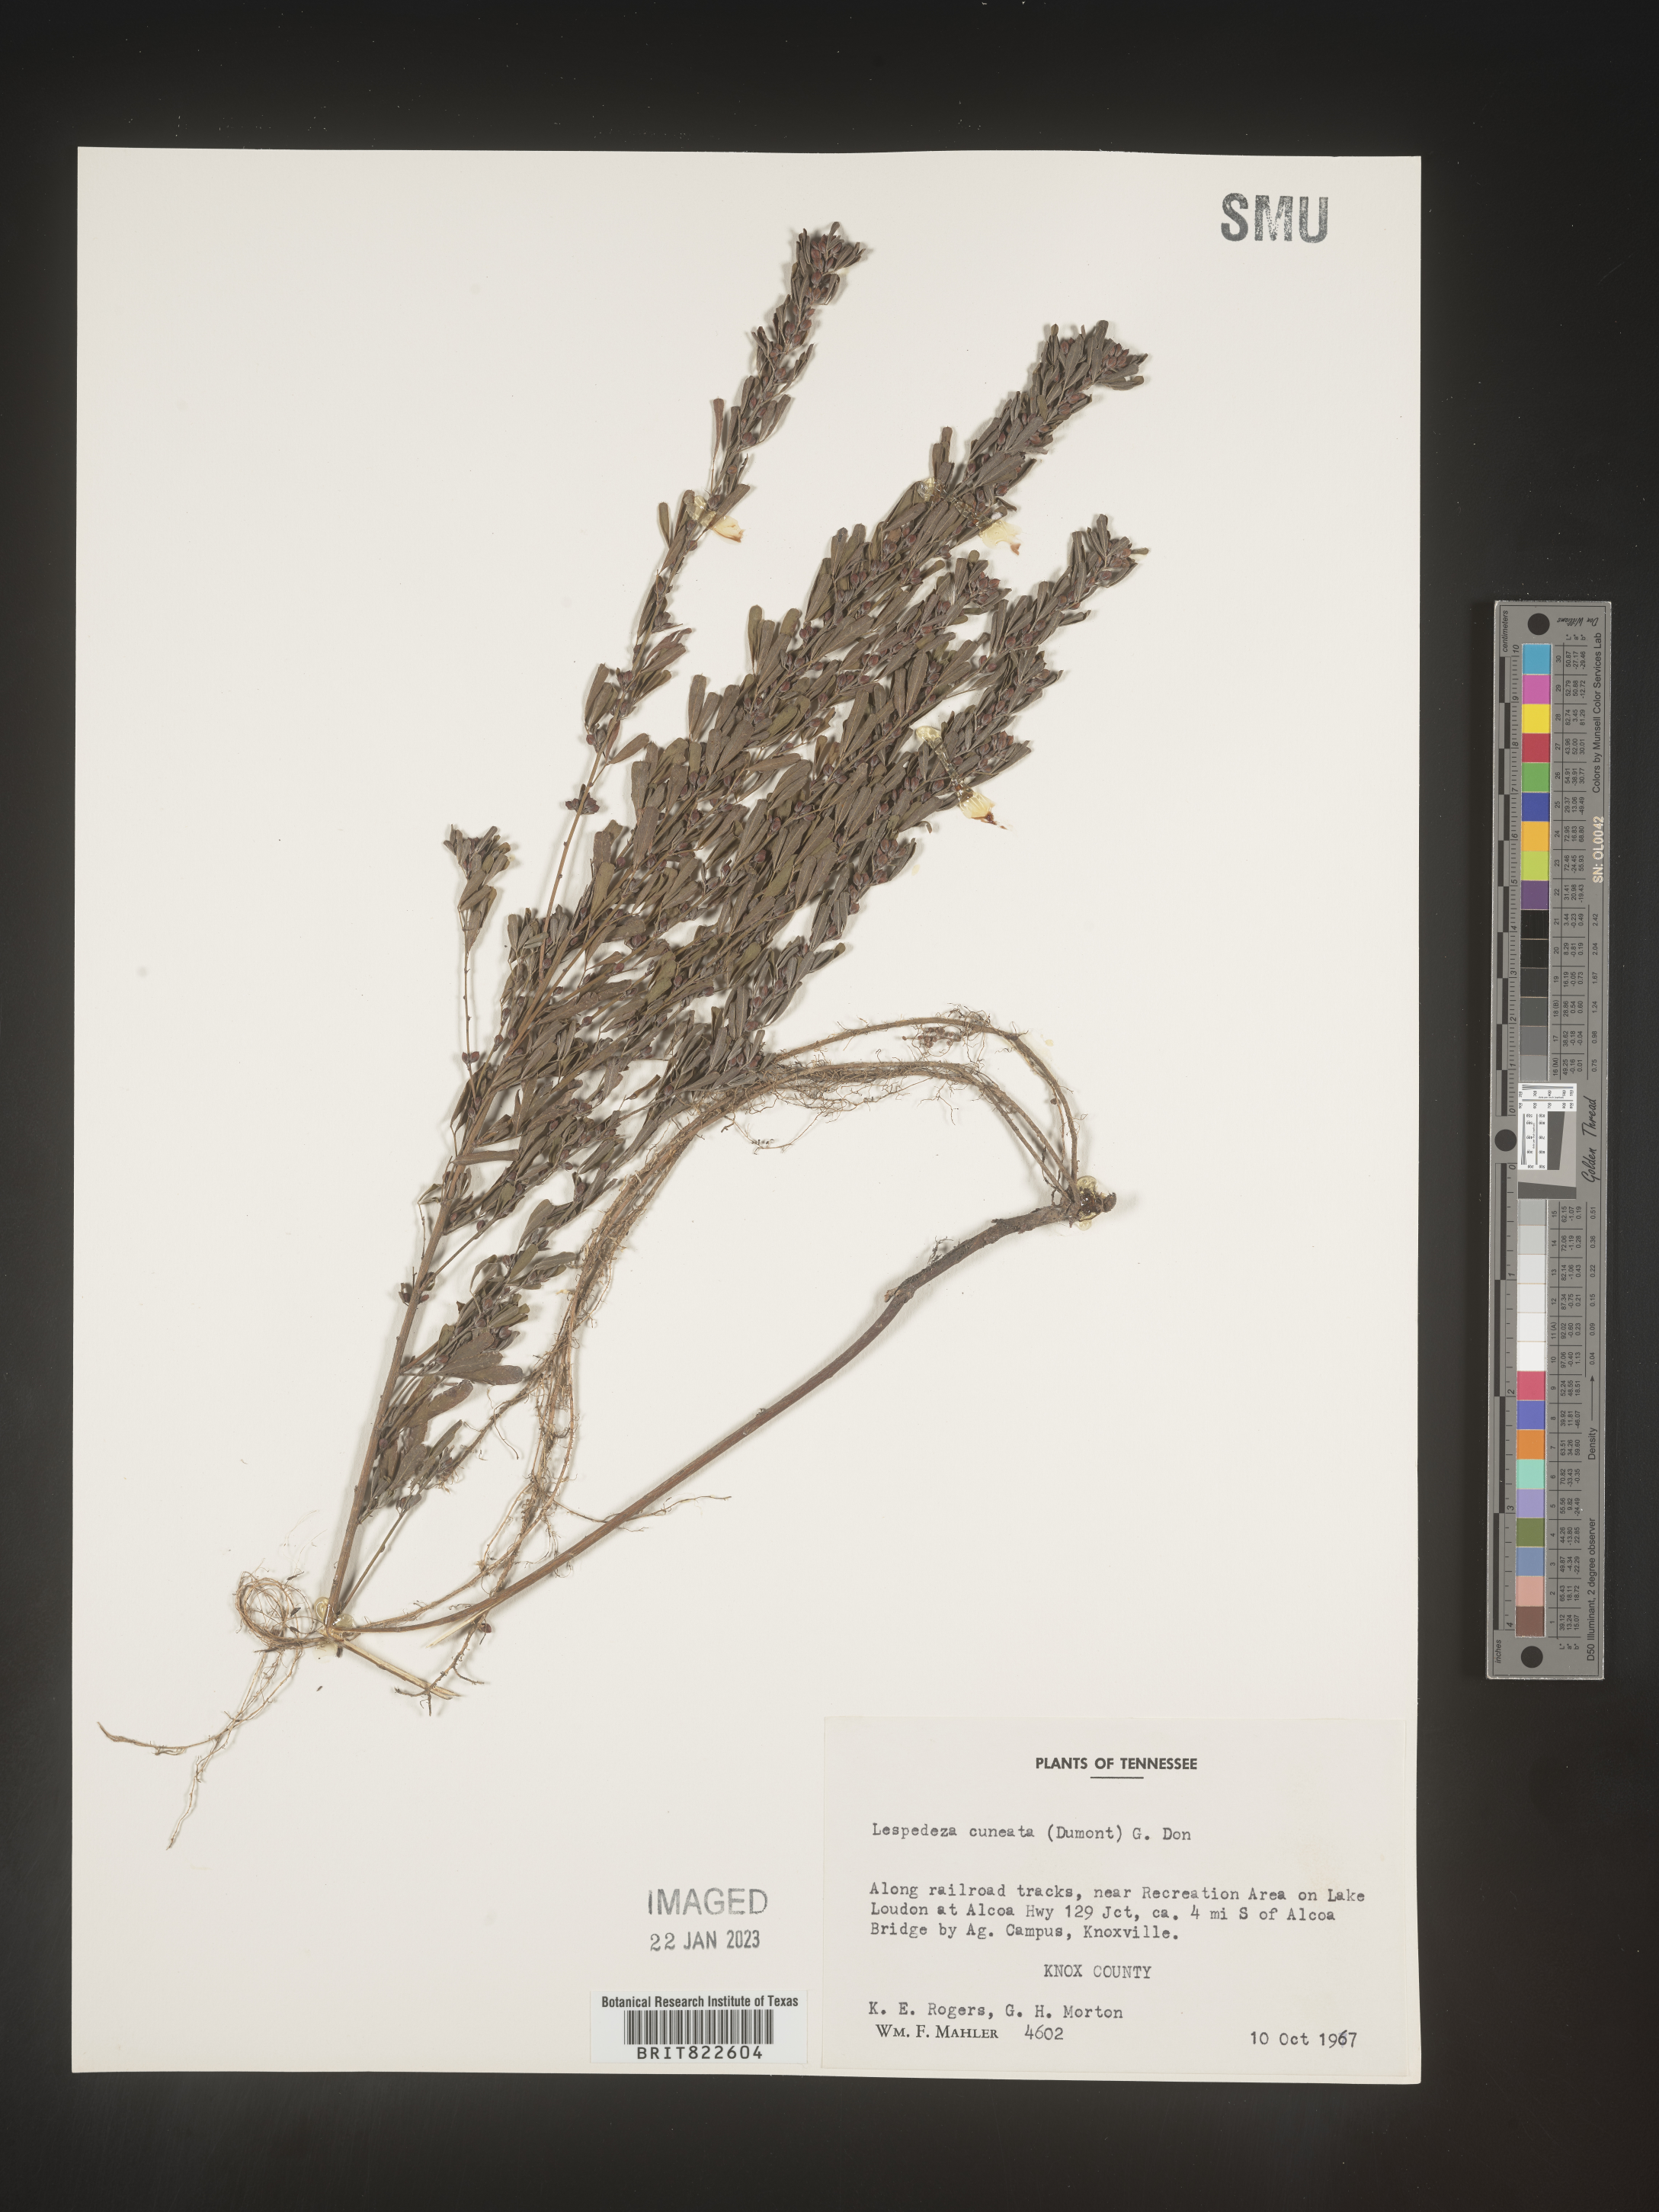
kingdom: Plantae
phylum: Tracheophyta
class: Magnoliopsida
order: Fabales
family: Fabaceae
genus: Lespedeza
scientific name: Lespedeza cuneata
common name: Chinese bush-clover
